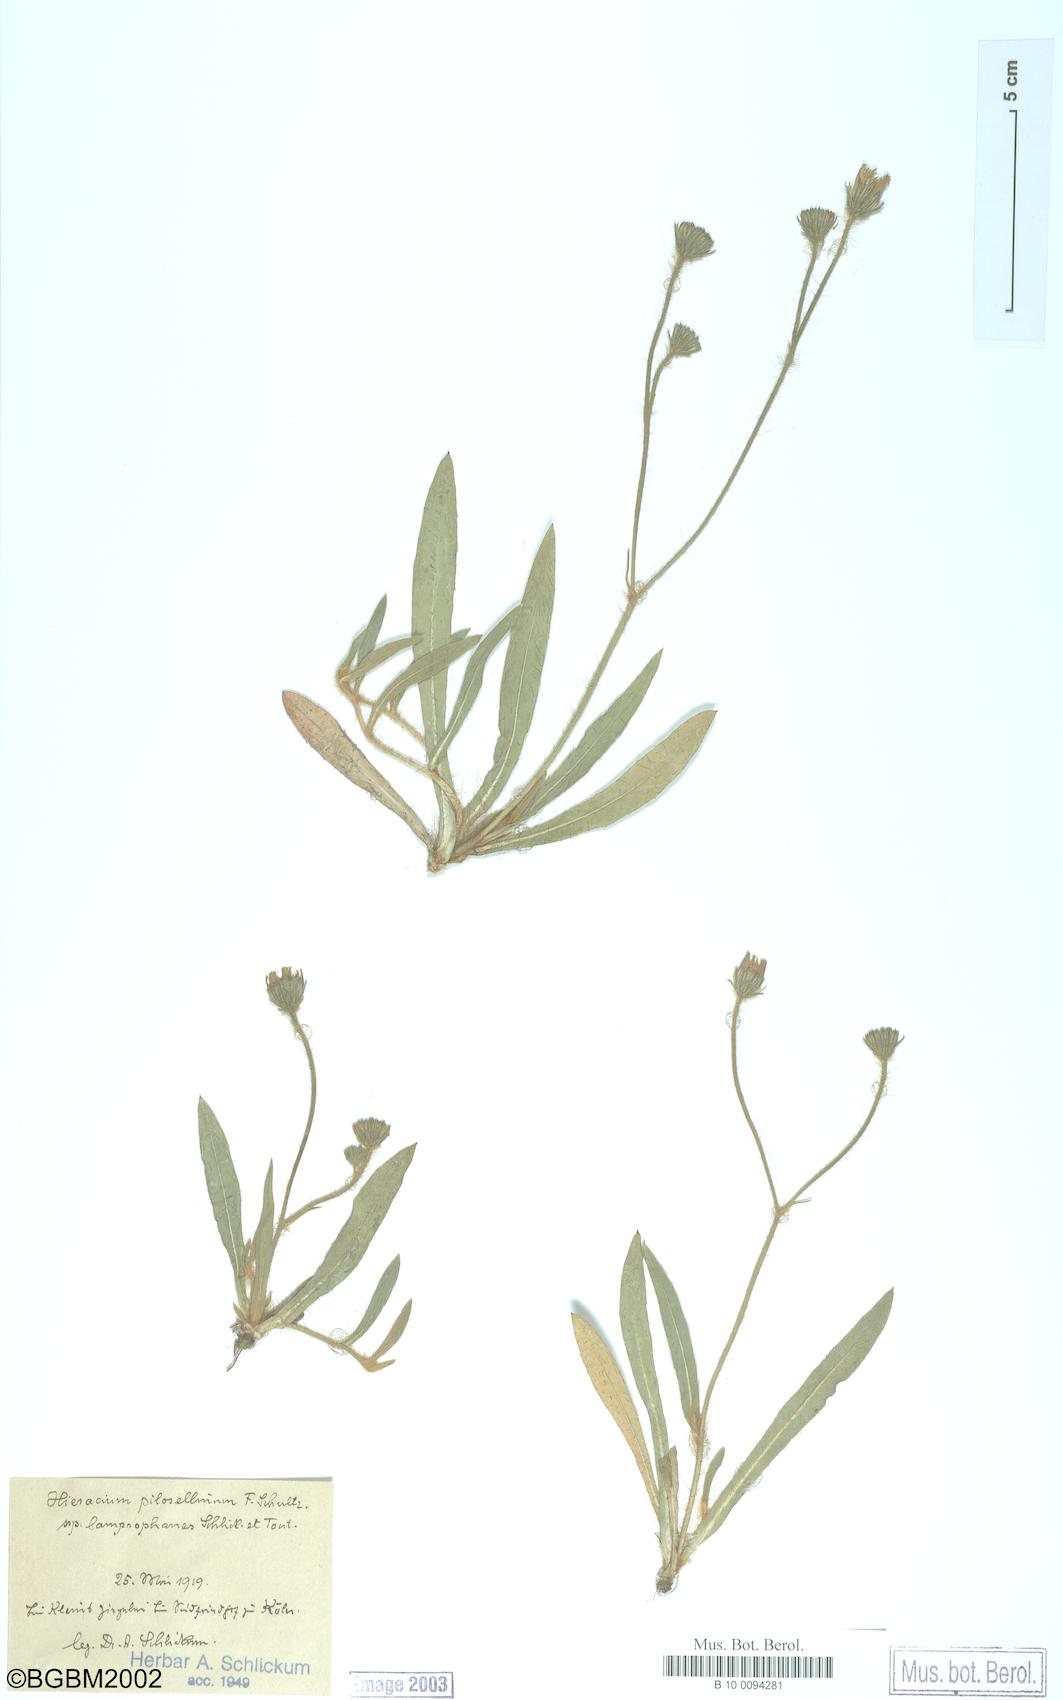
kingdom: Plantae
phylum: Tracheophyta
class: Magnoliopsida
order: Asterales
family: Asteraceae
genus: Pilosella
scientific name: Pilosella pilosellina
